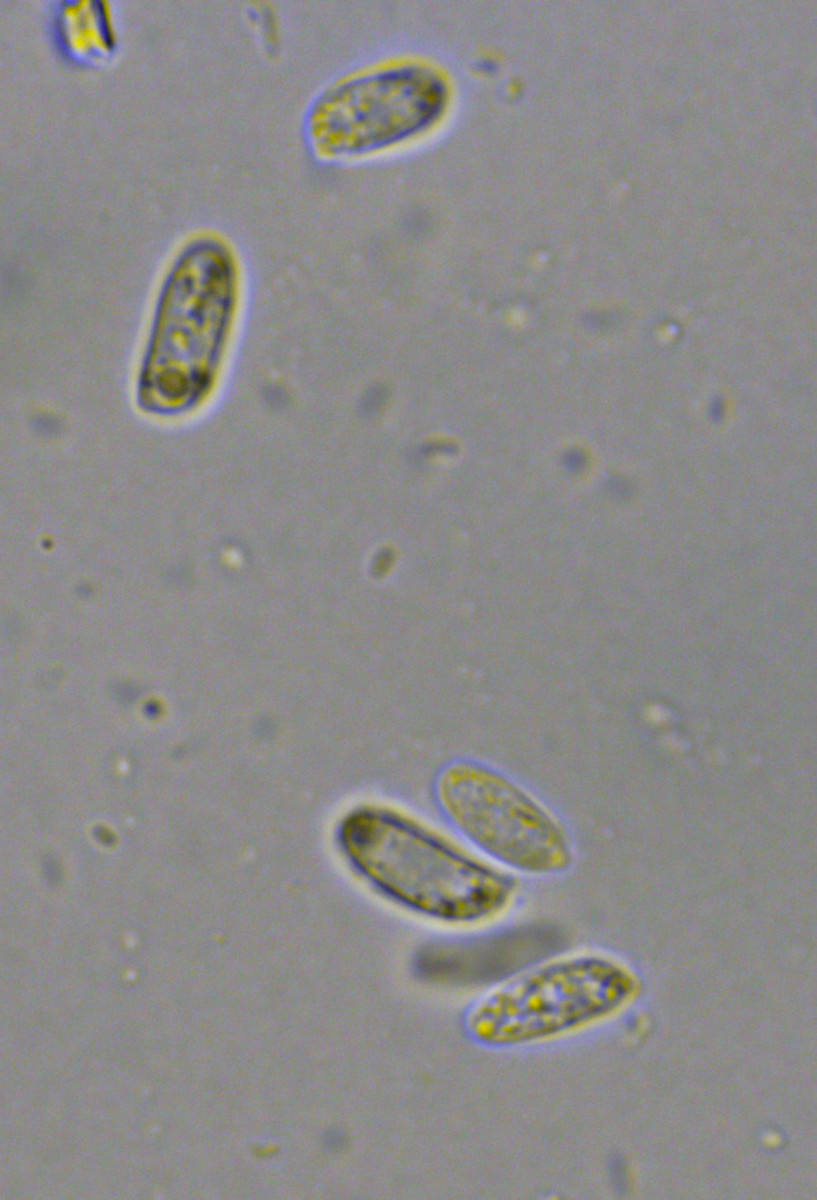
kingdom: Fungi
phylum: Basidiomycota
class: Agaricomycetes
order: Agaricales
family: Physalacriaceae
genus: Flammulina
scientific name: Flammulina velutipes
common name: gul fløjlsfod
